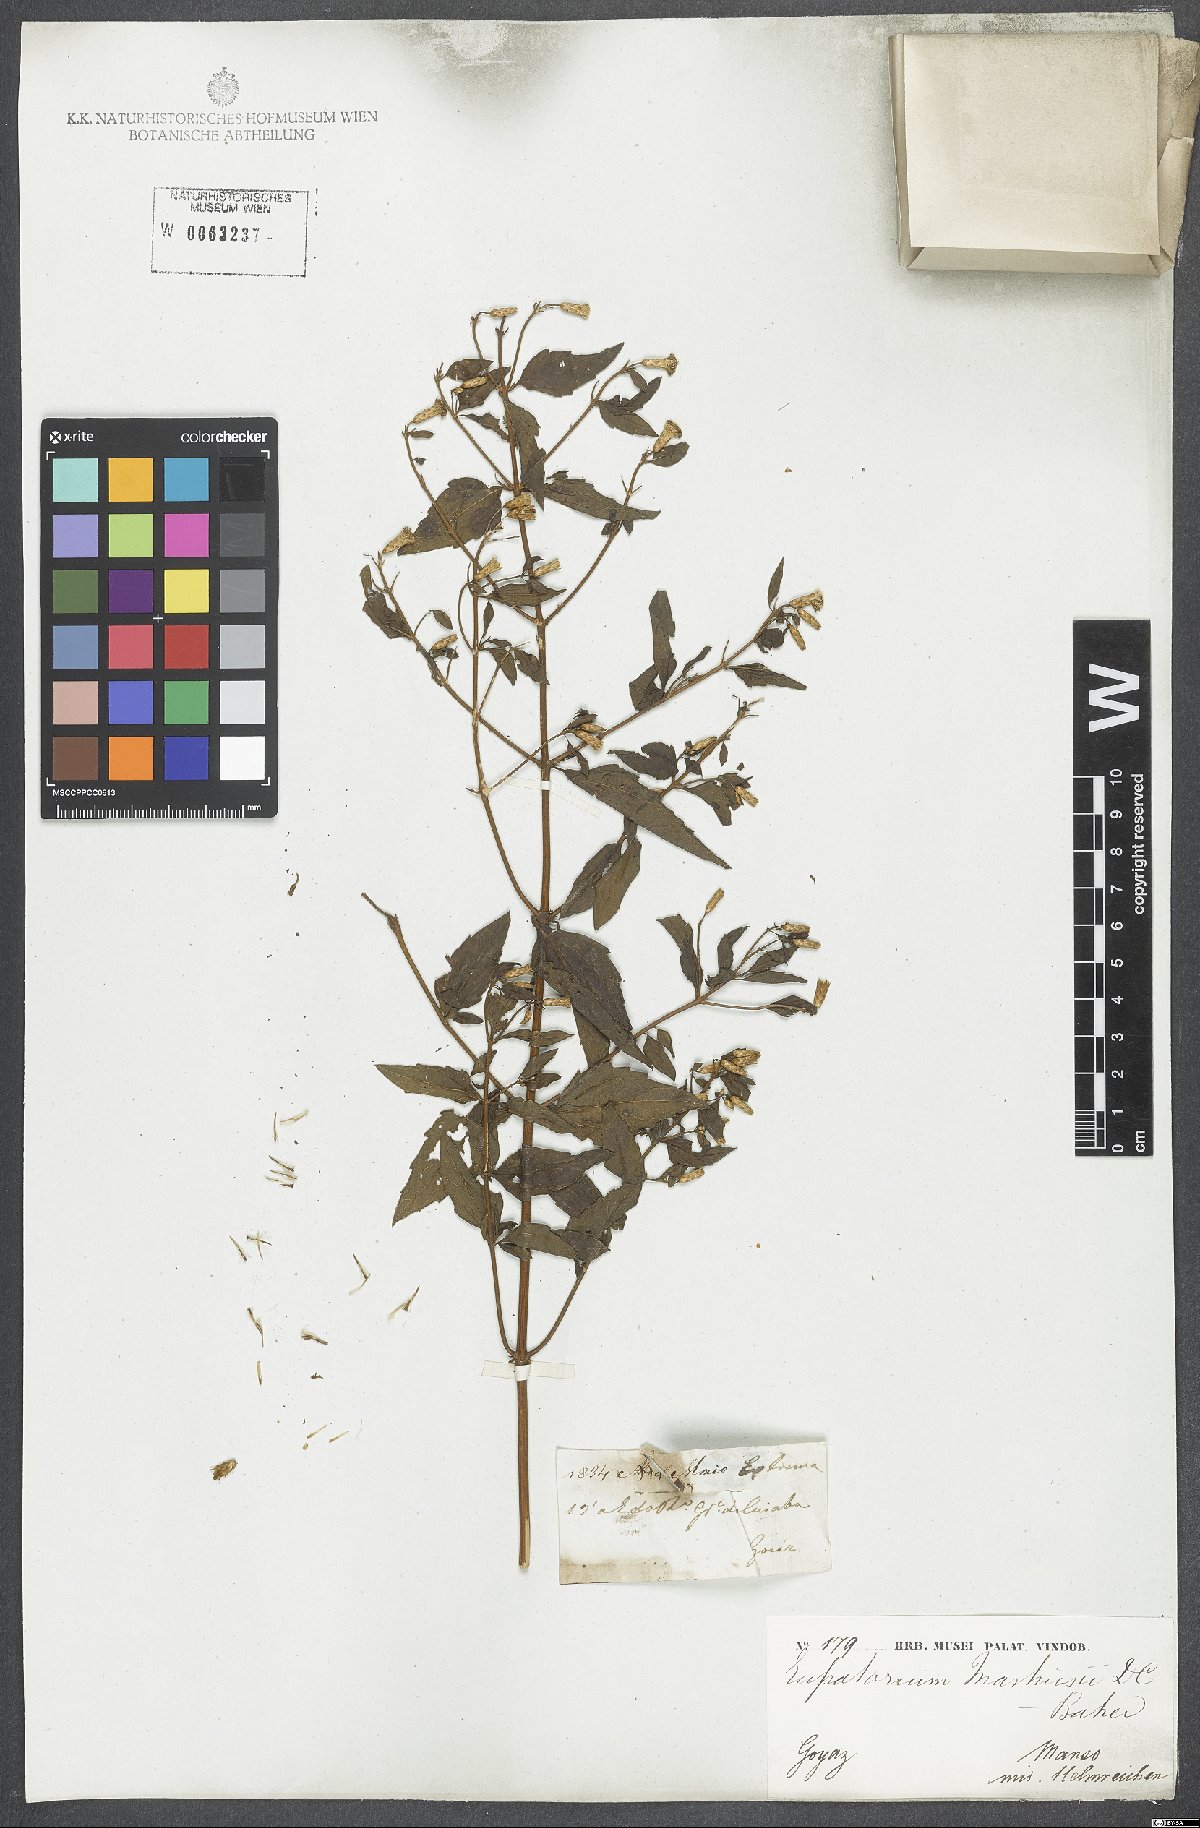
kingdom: Plantae
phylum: Tracheophyta
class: Magnoliopsida
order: Asterales
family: Asteraceae
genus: Chromolaena
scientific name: Chromolaena squalida
